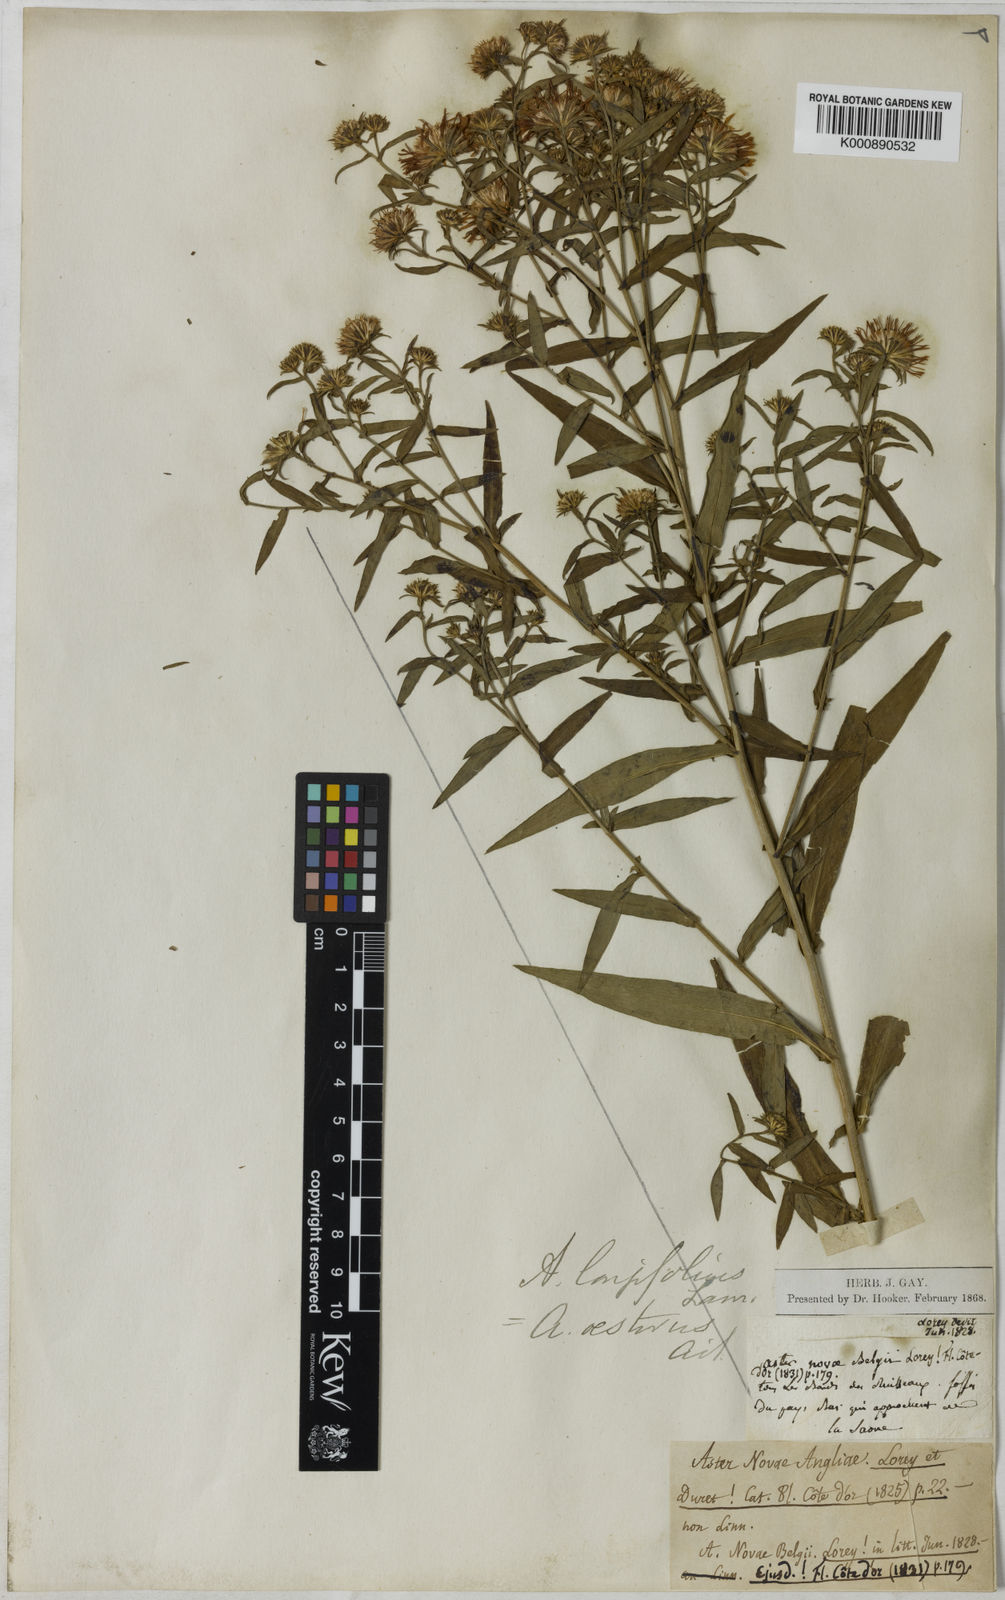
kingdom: Plantae
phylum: Tracheophyta
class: Magnoliopsida
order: Asterales
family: Asteraceae
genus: Symphyotrichum
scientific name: Symphyotrichum novi-belgii
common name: Michaelmas daisy
